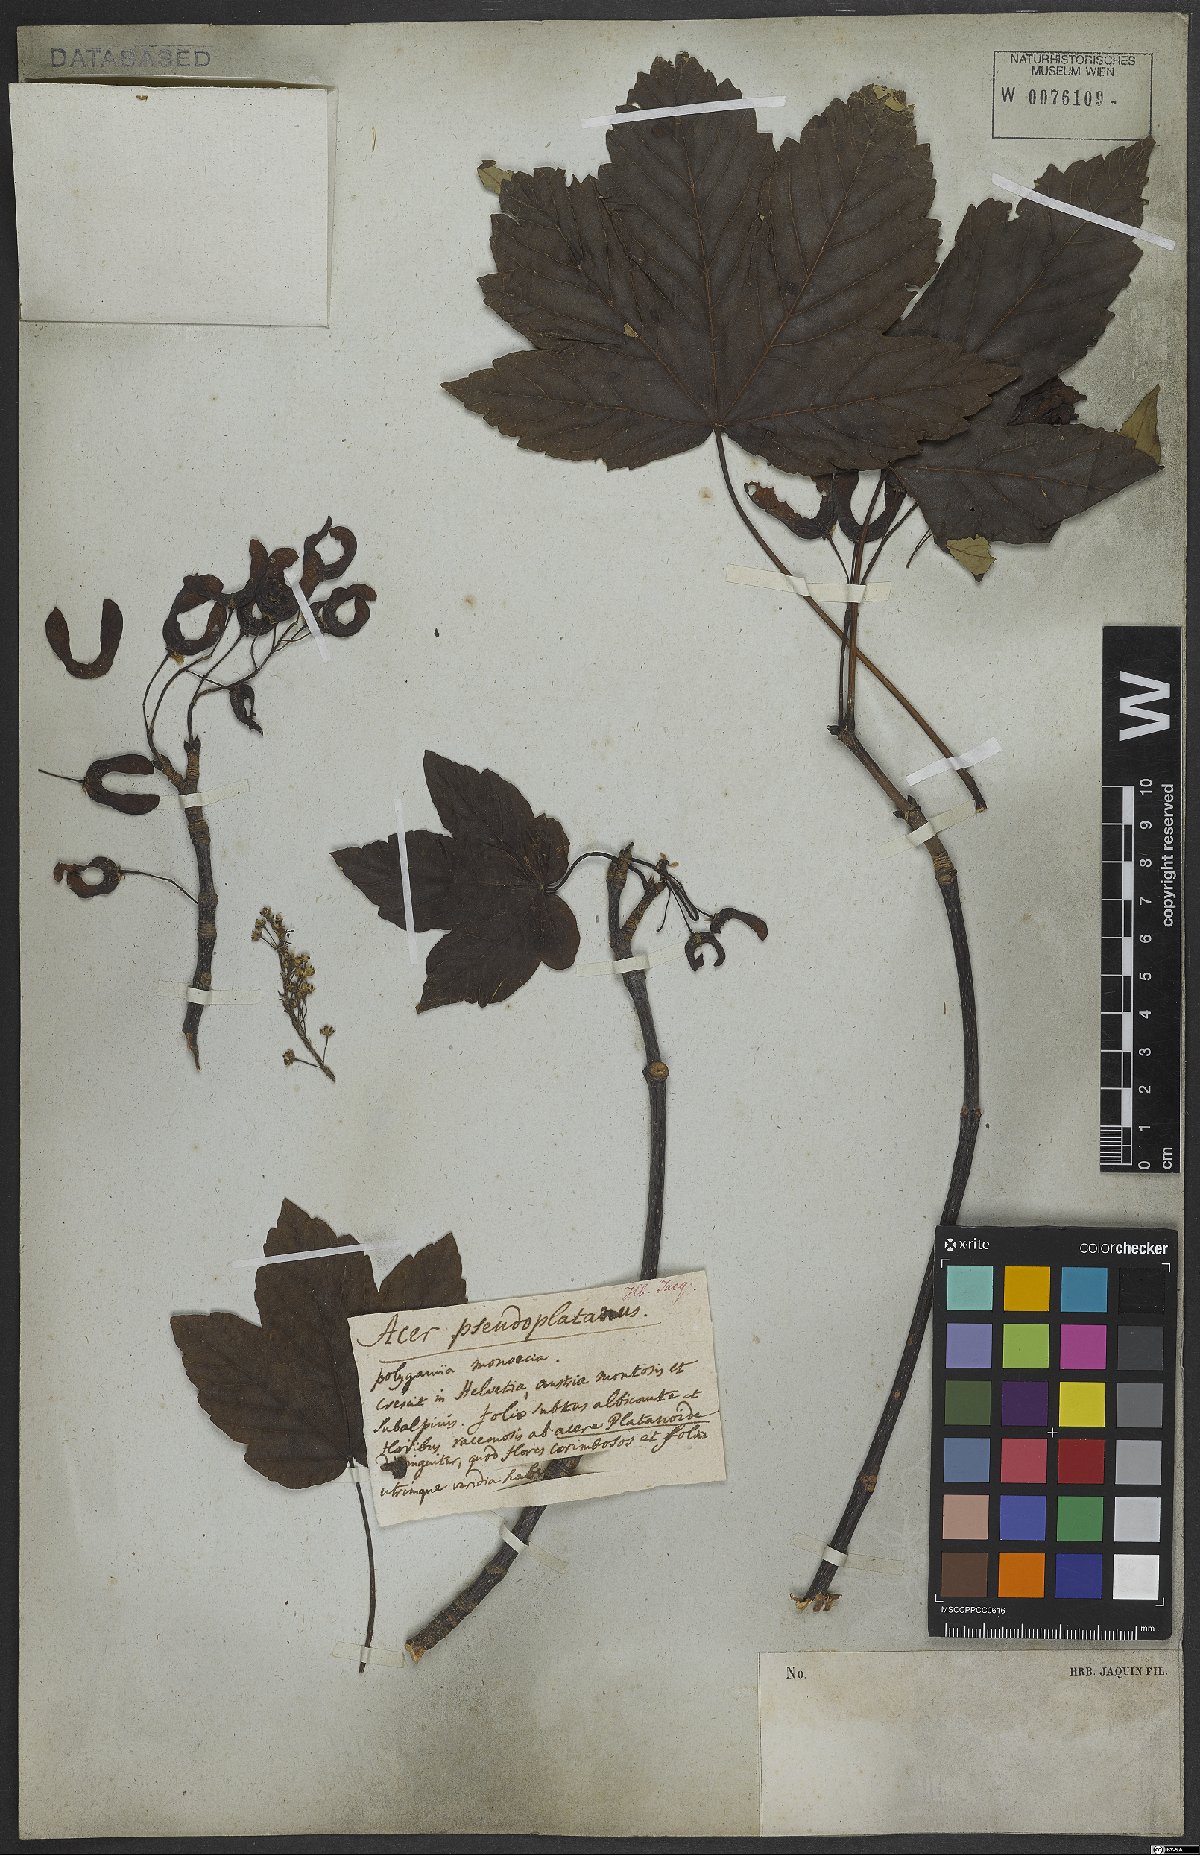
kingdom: Plantae
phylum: Tracheophyta
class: Magnoliopsida
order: Sapindales
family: Sapindaceae
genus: Acer
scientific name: Acer pseudoplatanus
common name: Sycamore
